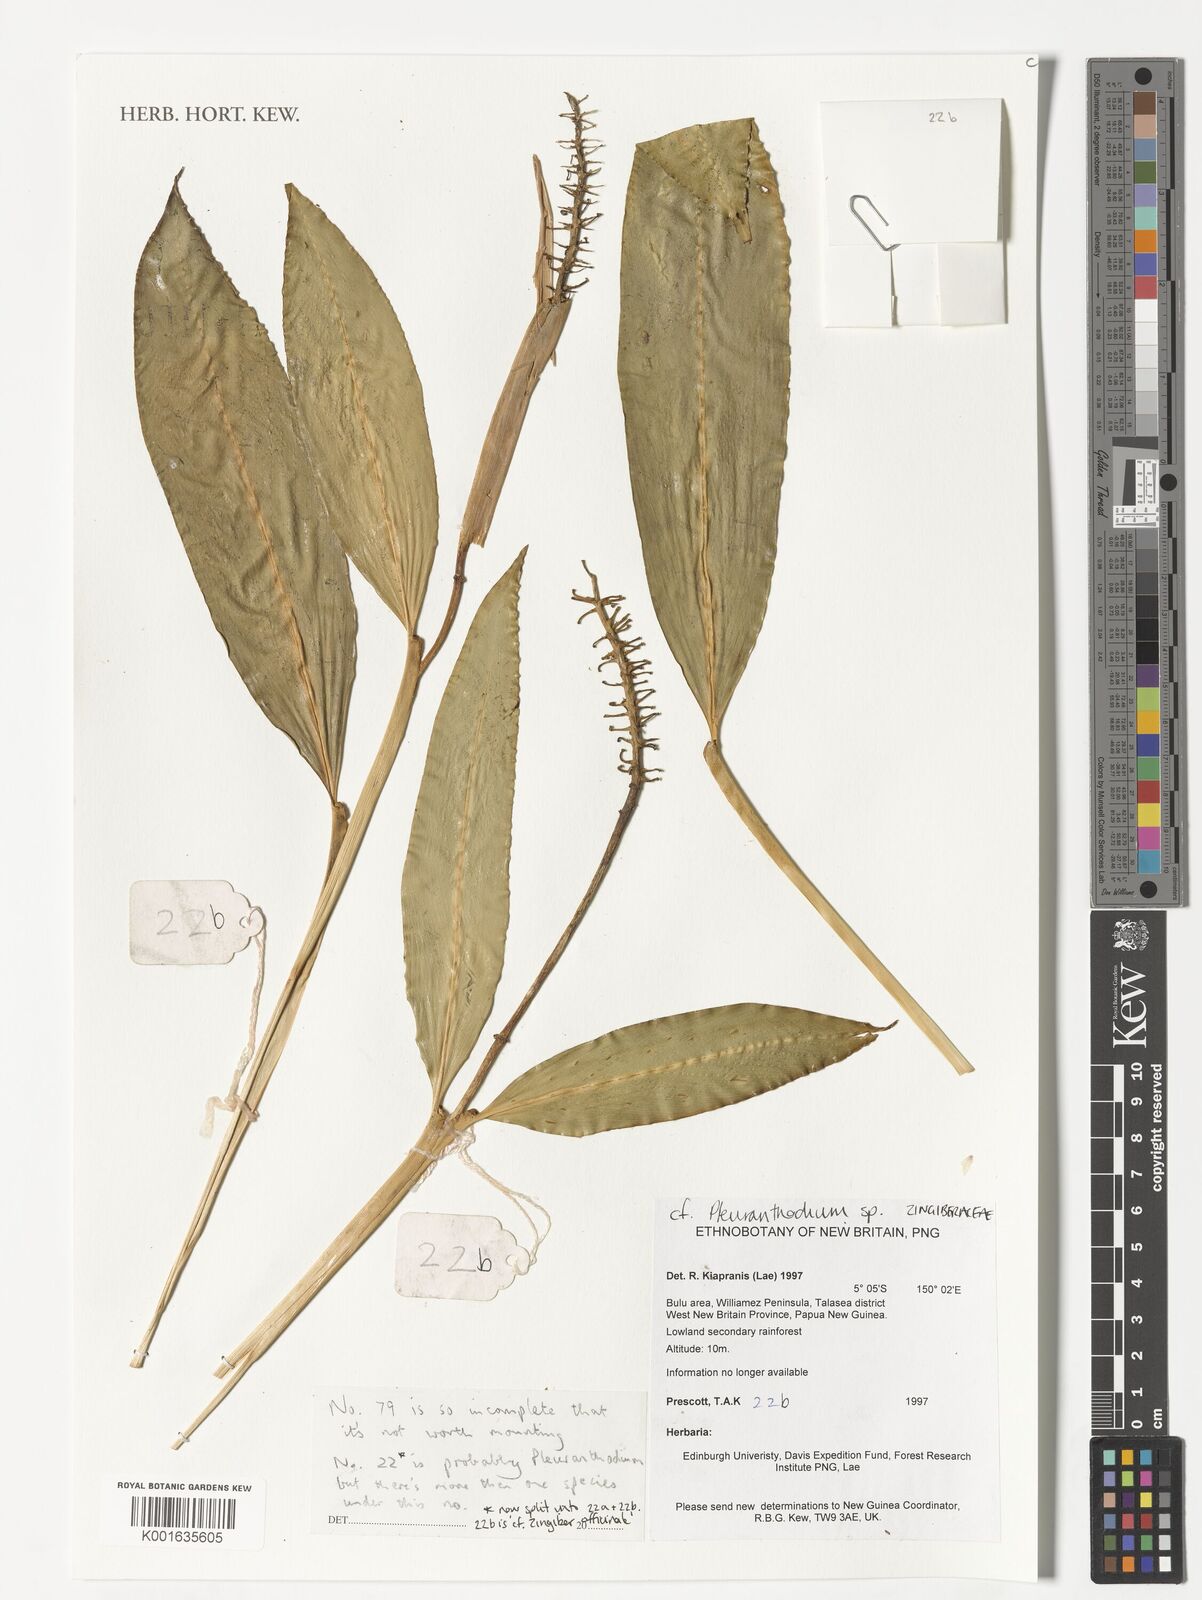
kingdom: Plantae
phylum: Tracheophyta
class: Liliopsida
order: Zingiberales
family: Zingiberaceae
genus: Pleuranthodium
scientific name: Pleuranthodium
